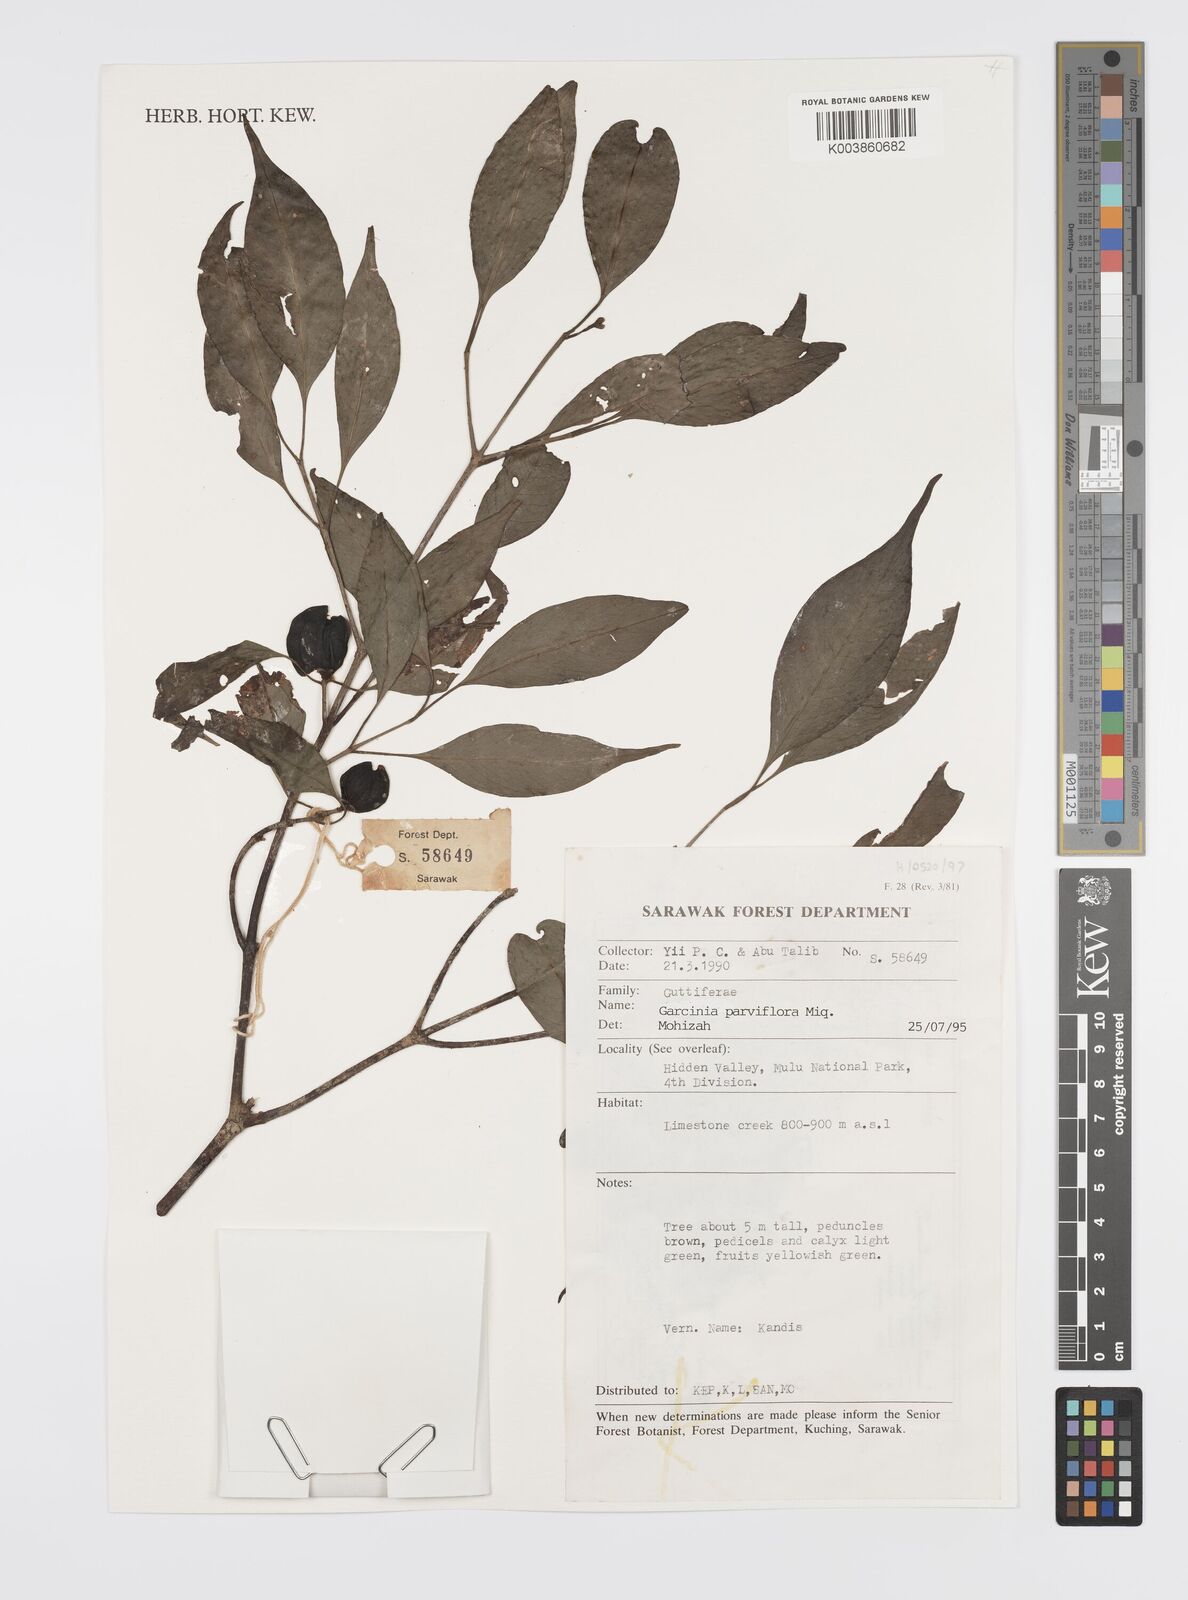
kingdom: Plantae
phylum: Tracheophyta
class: Magnoliopsida
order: Malpighiales
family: Clusiaceae
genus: Garcinia
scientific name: Garcinia parvifolia
